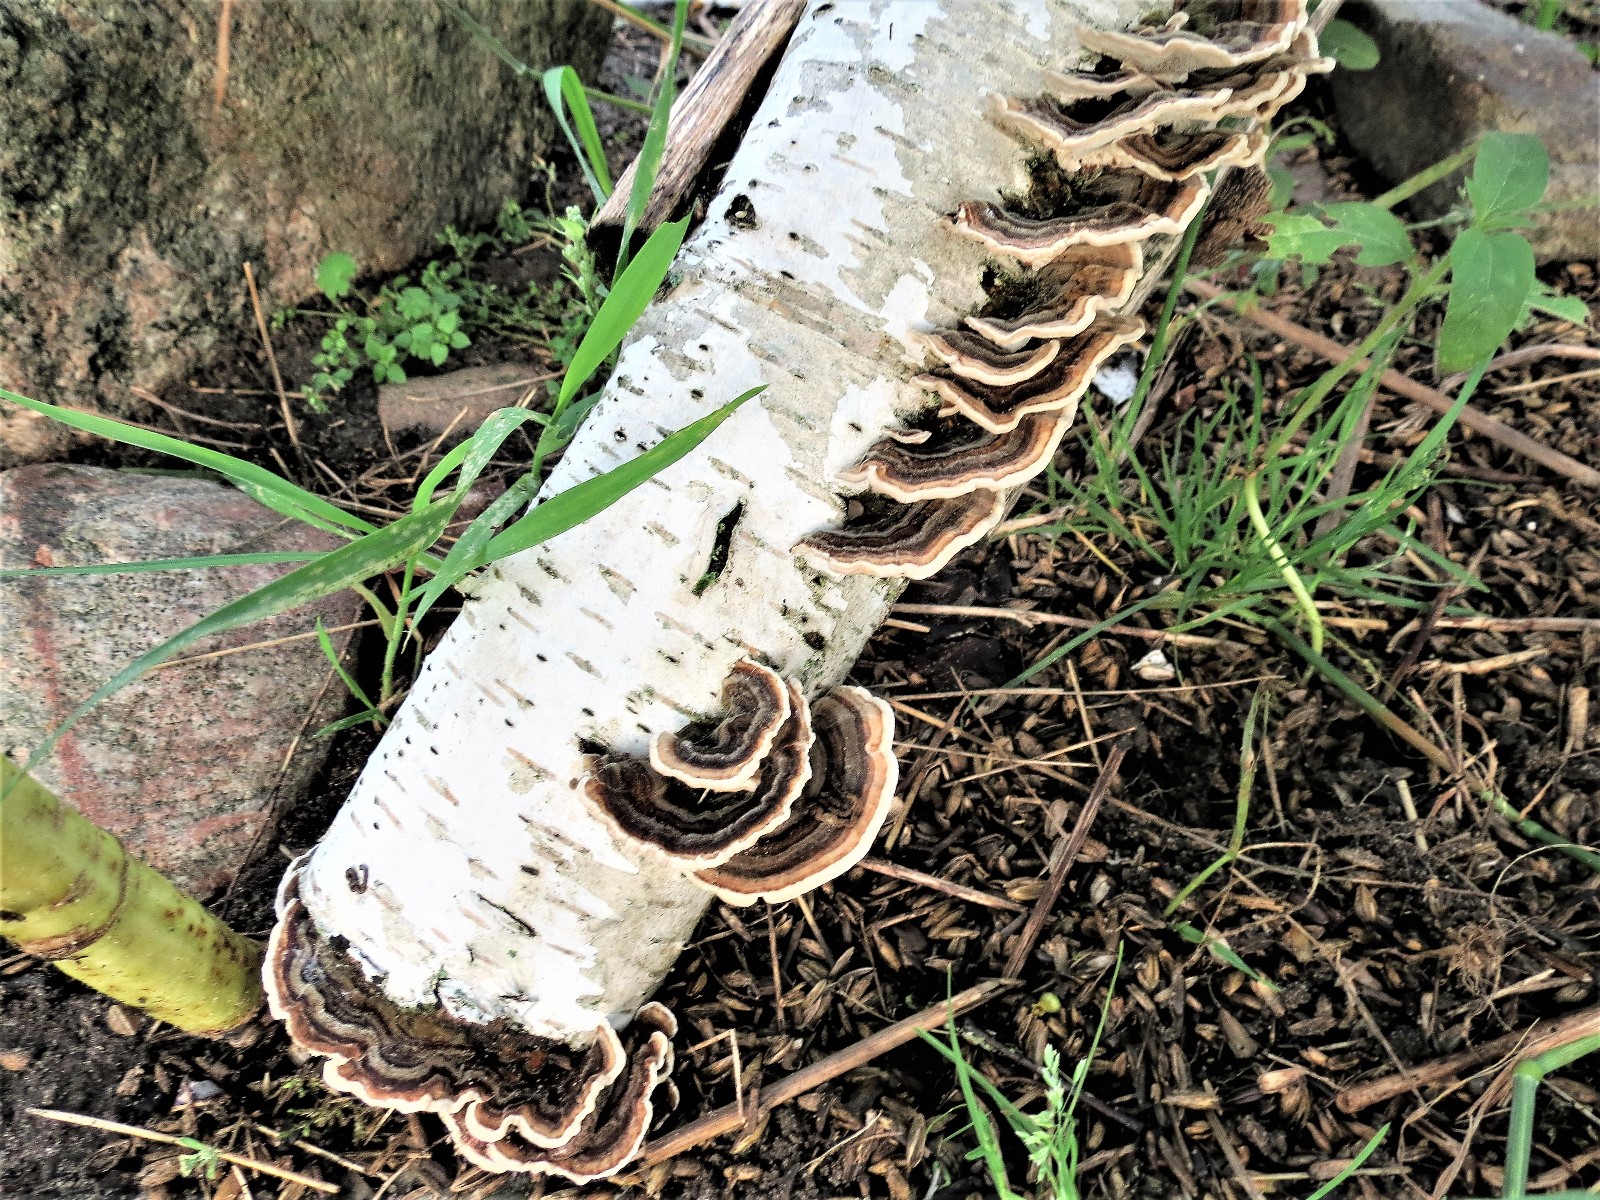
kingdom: Fungi
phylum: Basidiomycota
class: Agaricomycetes
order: Polyporales
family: Polyporaceae
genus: Trametes
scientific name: Trametes versicolor
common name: broget læderporesvamp
